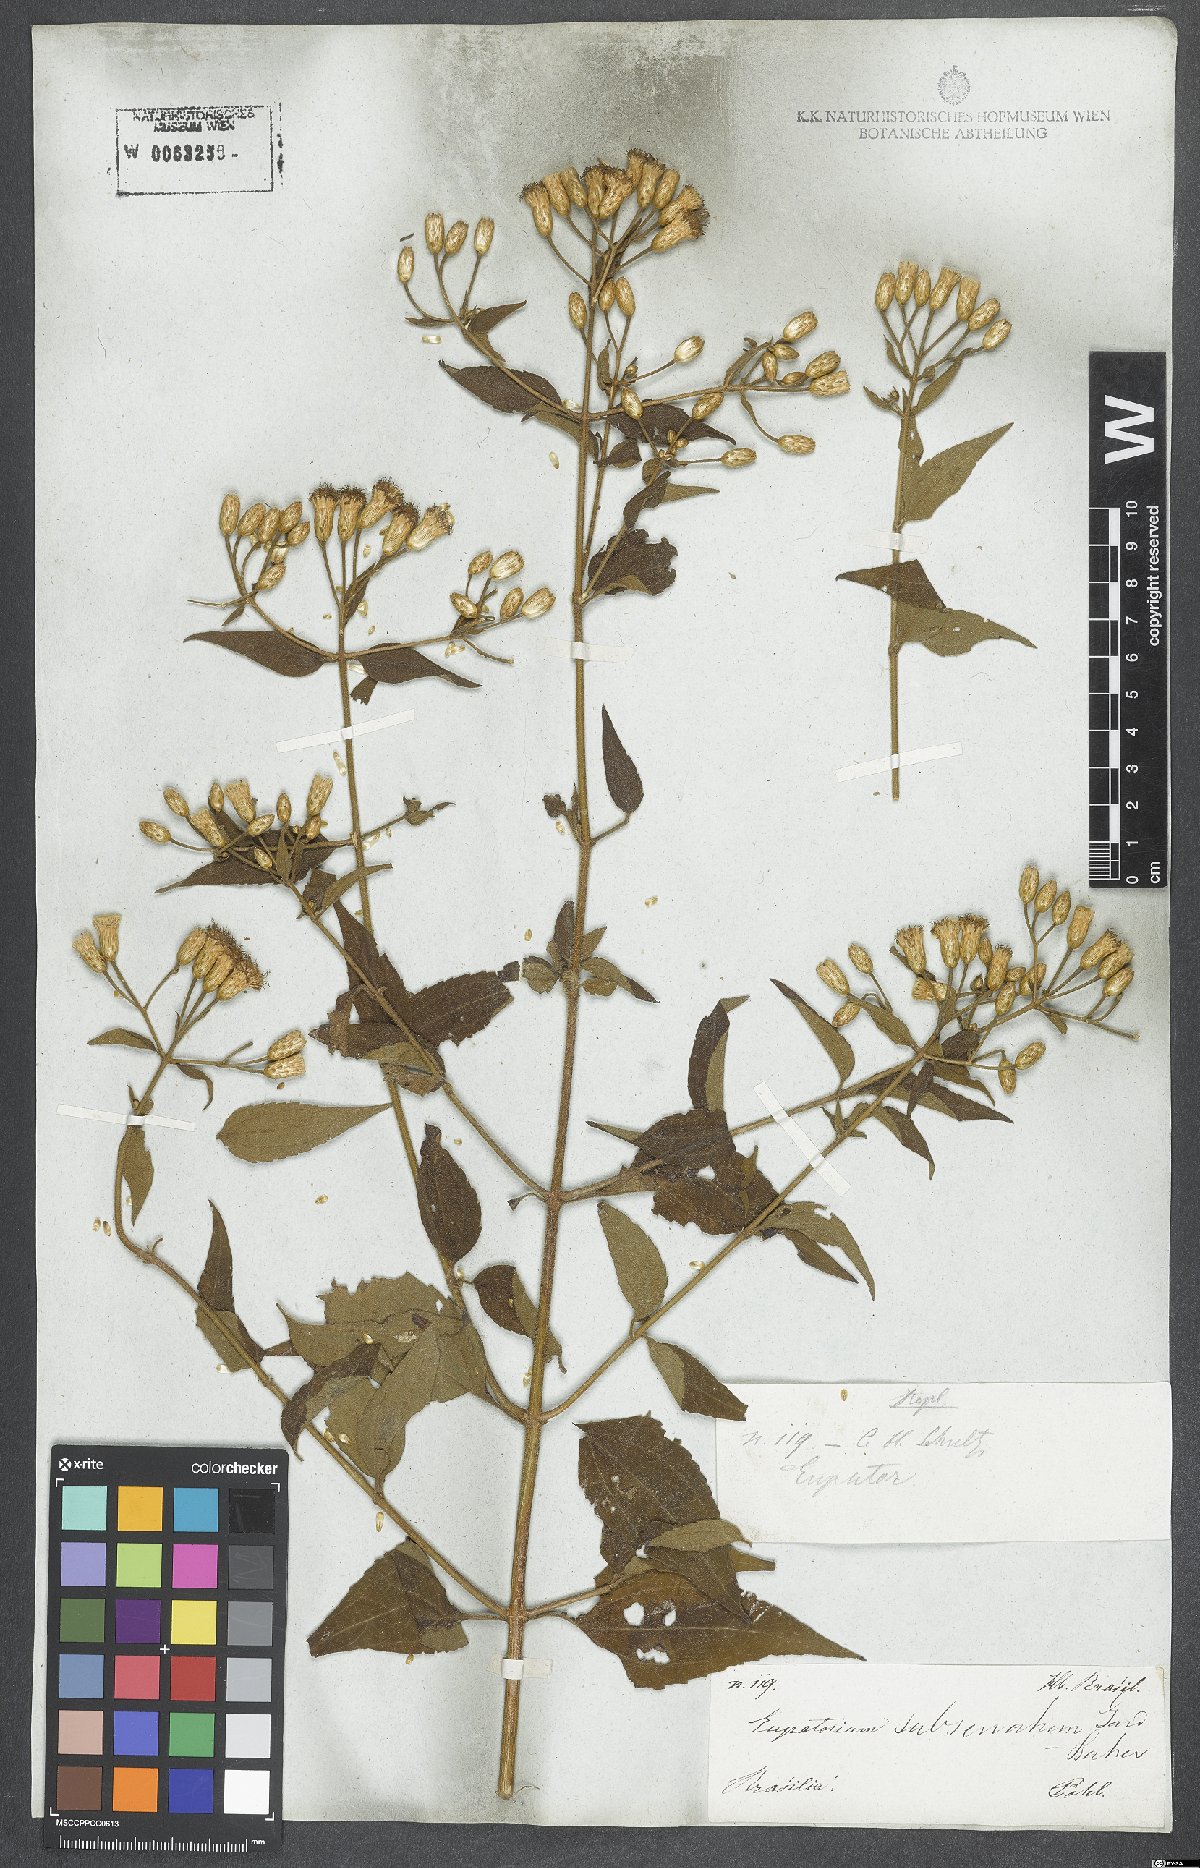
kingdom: Plantae
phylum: Tracheophyta
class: Magnoliopsida
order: Asterales
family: Asteraceae
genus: Chromolaena
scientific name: Chromolaena mucronata
